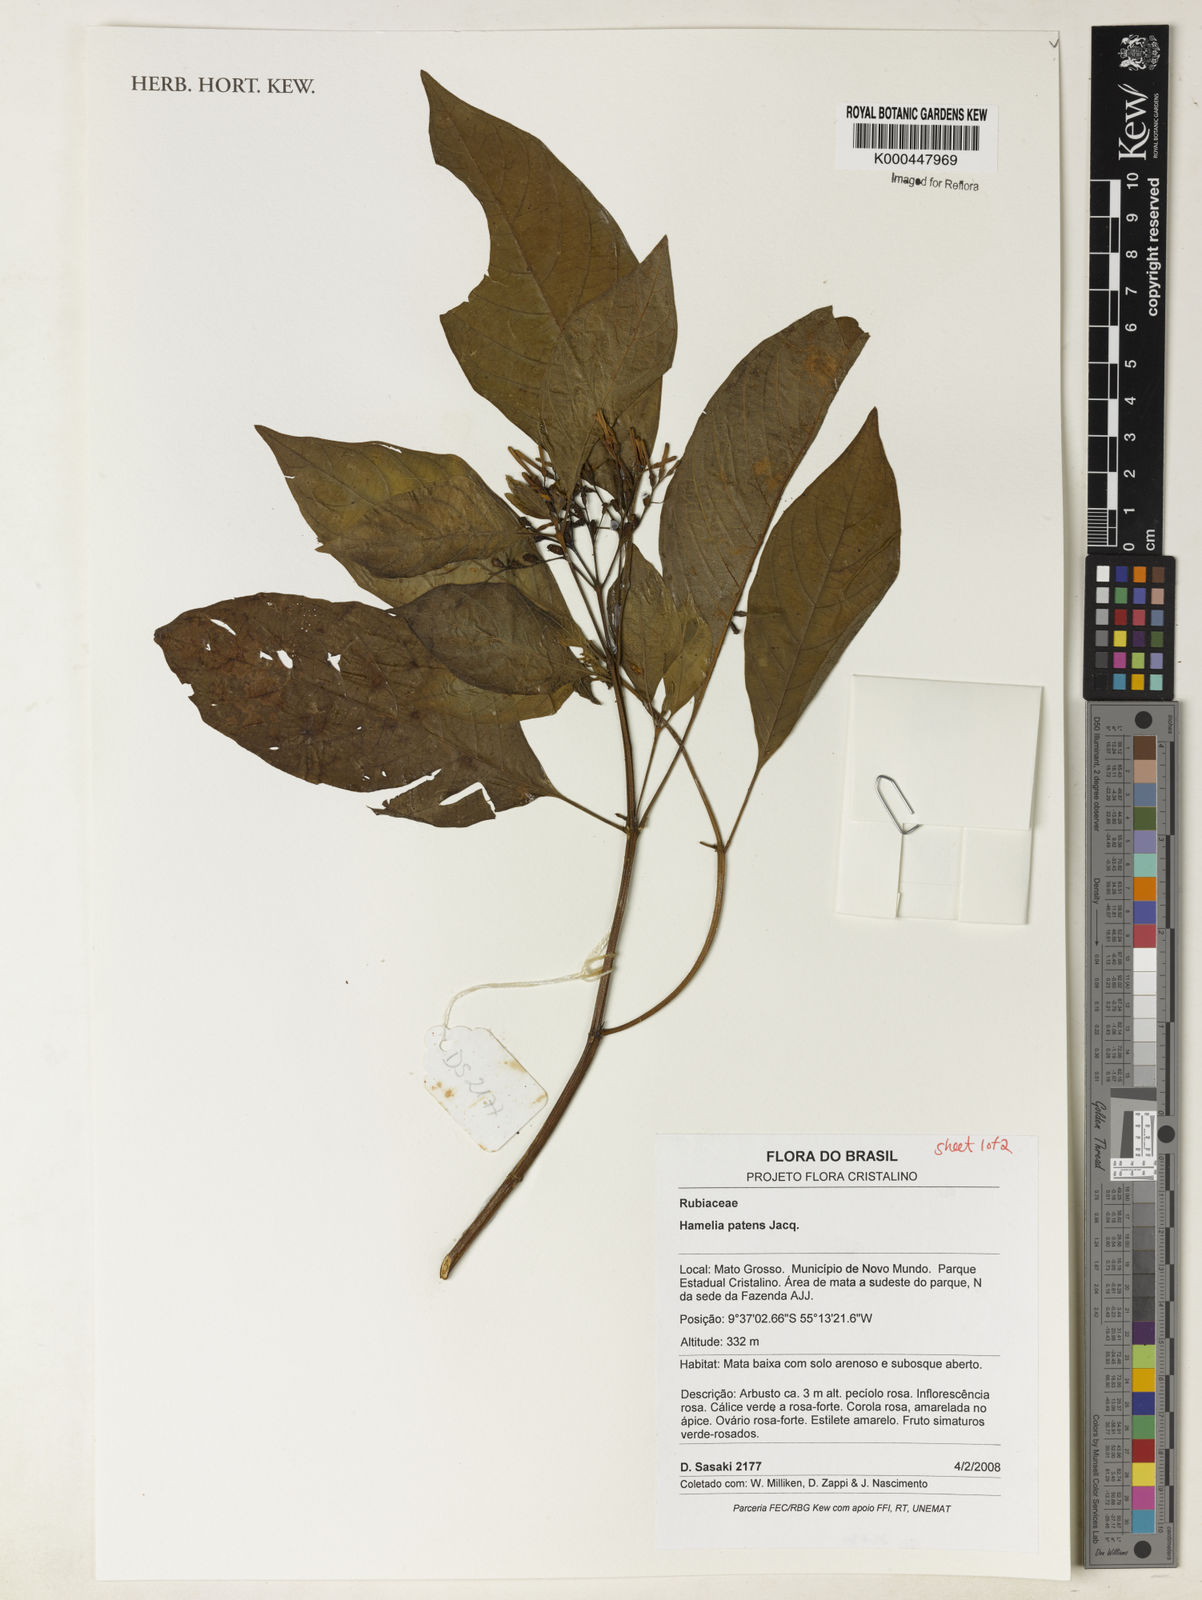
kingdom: Plantae
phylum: Tracheophyta
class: Magnoliopsida
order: Gentianales
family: Rubiaceae
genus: Hamelia
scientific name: Hamelia patens
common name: Redhead
